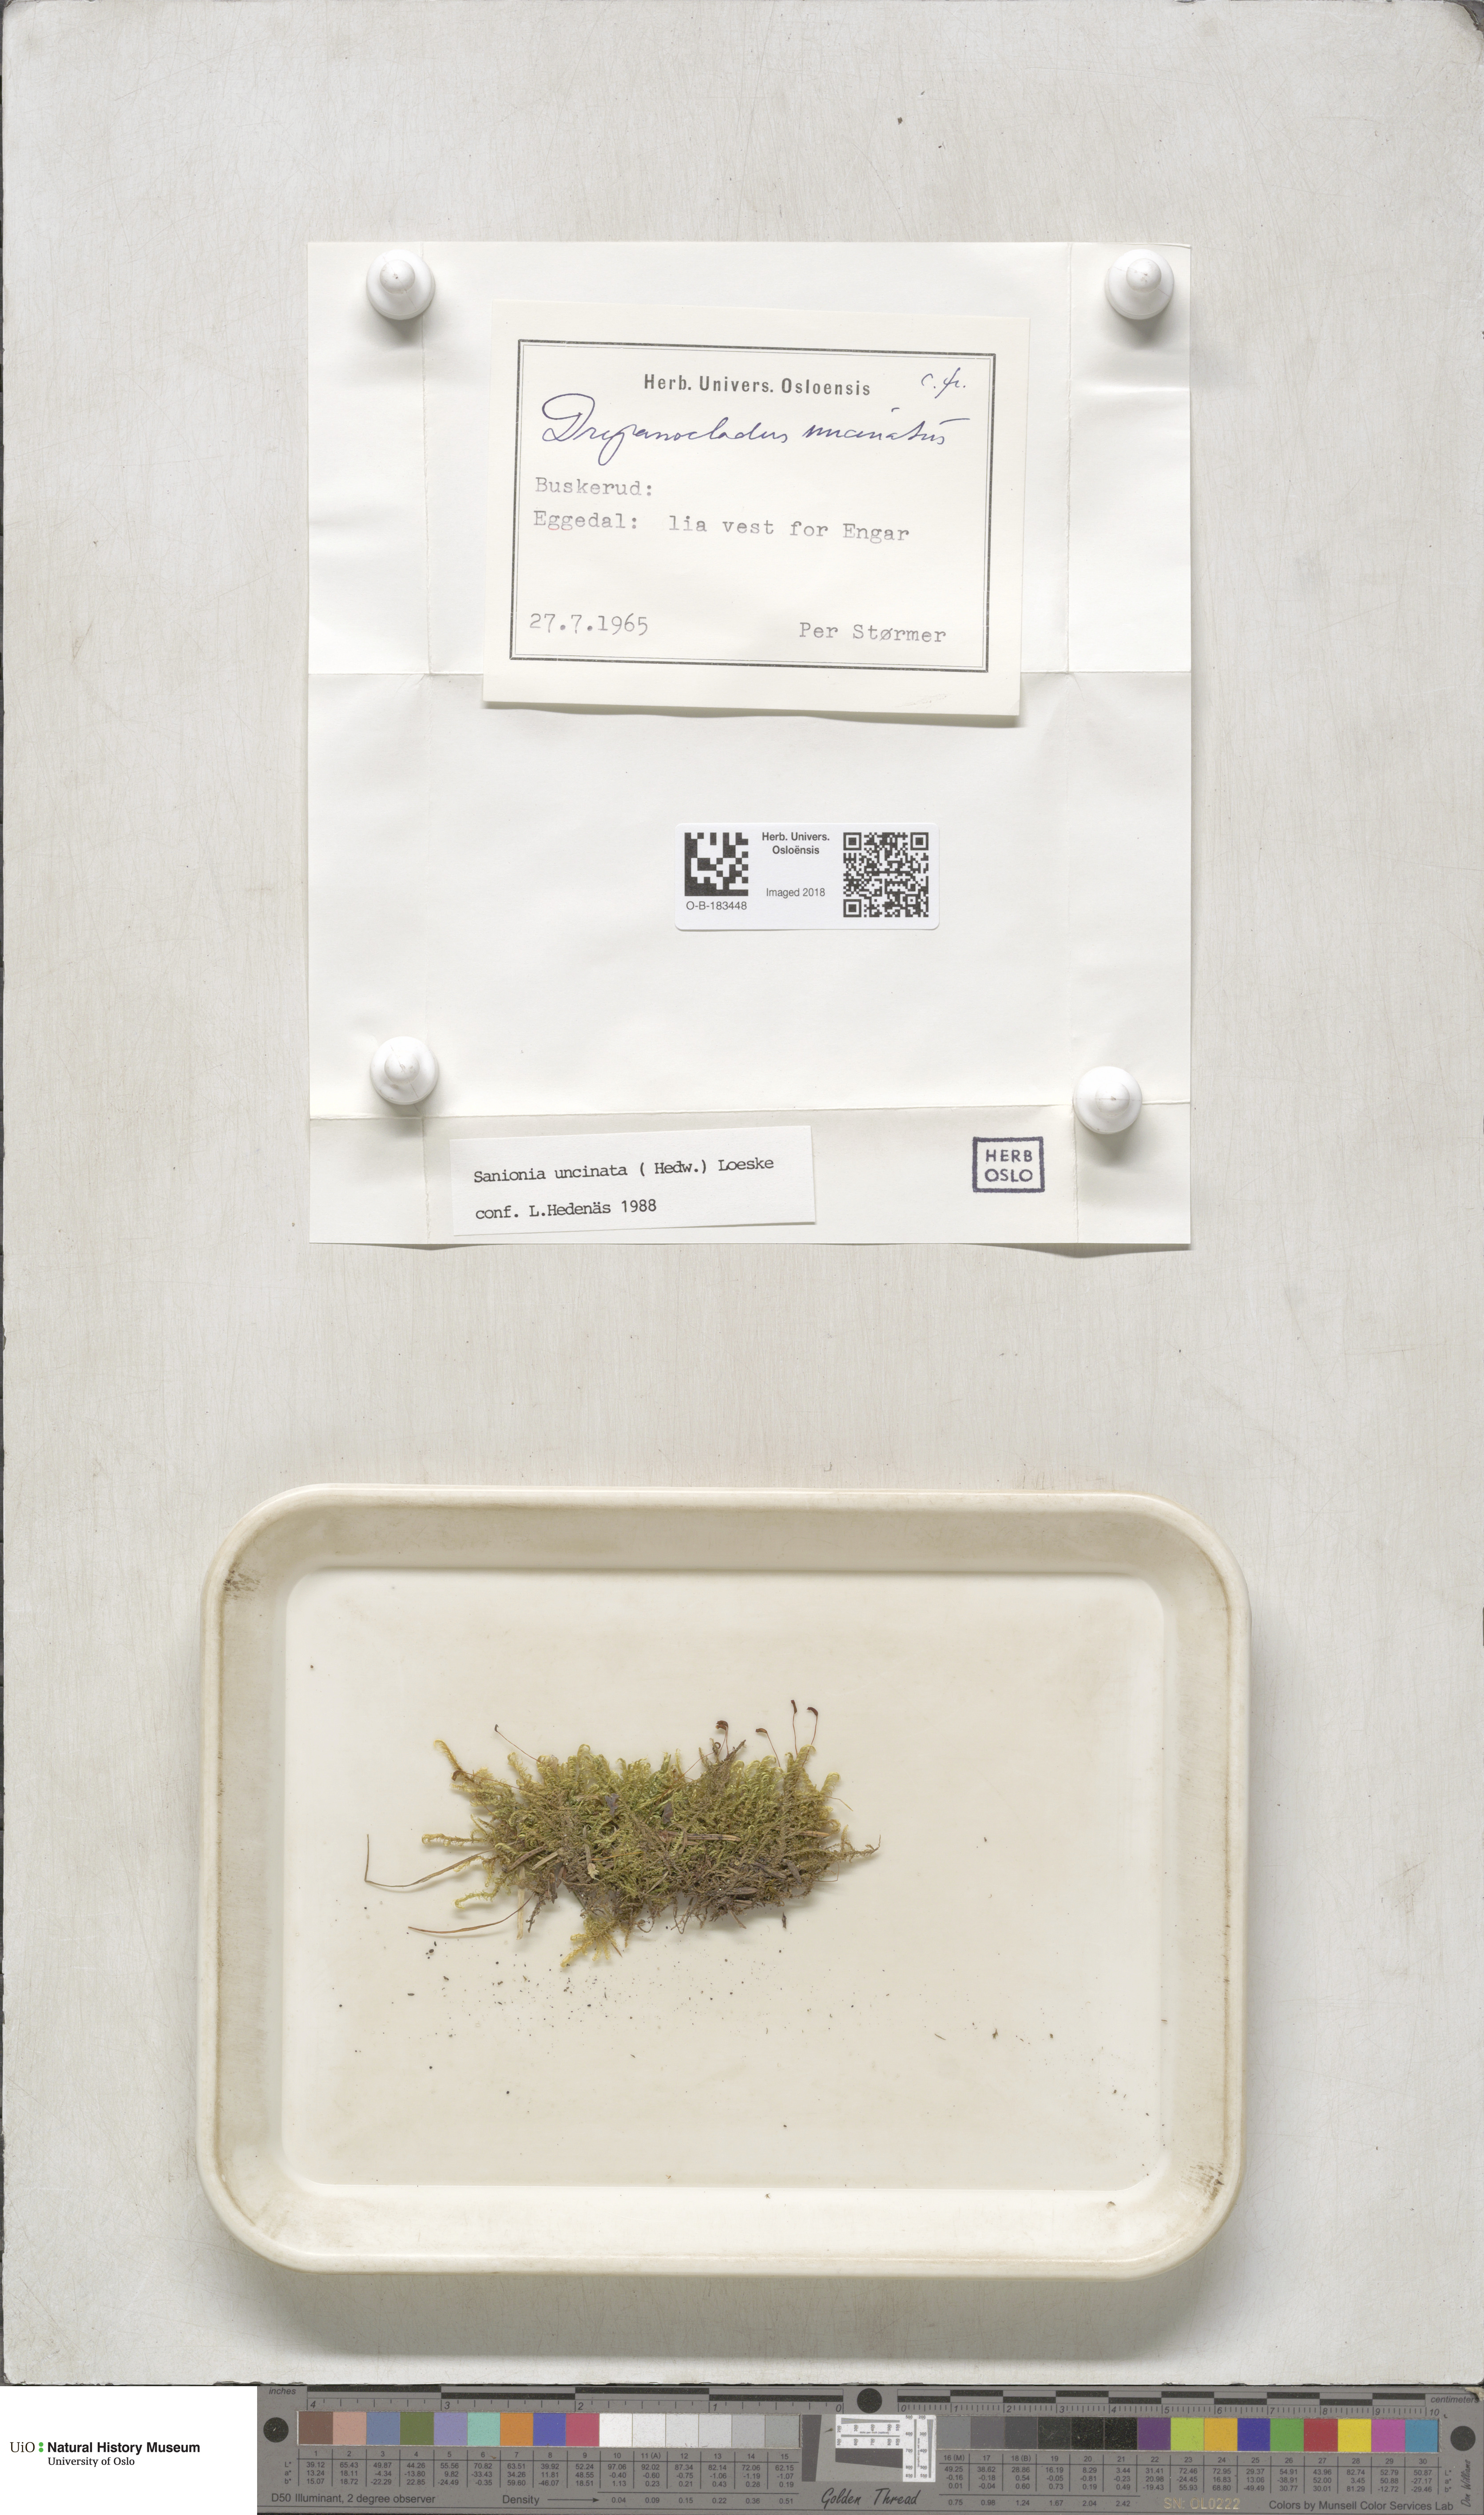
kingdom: Plantae
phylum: Bryophyta
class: Bryopsida
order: Hypnales
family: Scorpidiaceae
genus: Sanionia
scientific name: Sanionia uncinata
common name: Sickle moss
